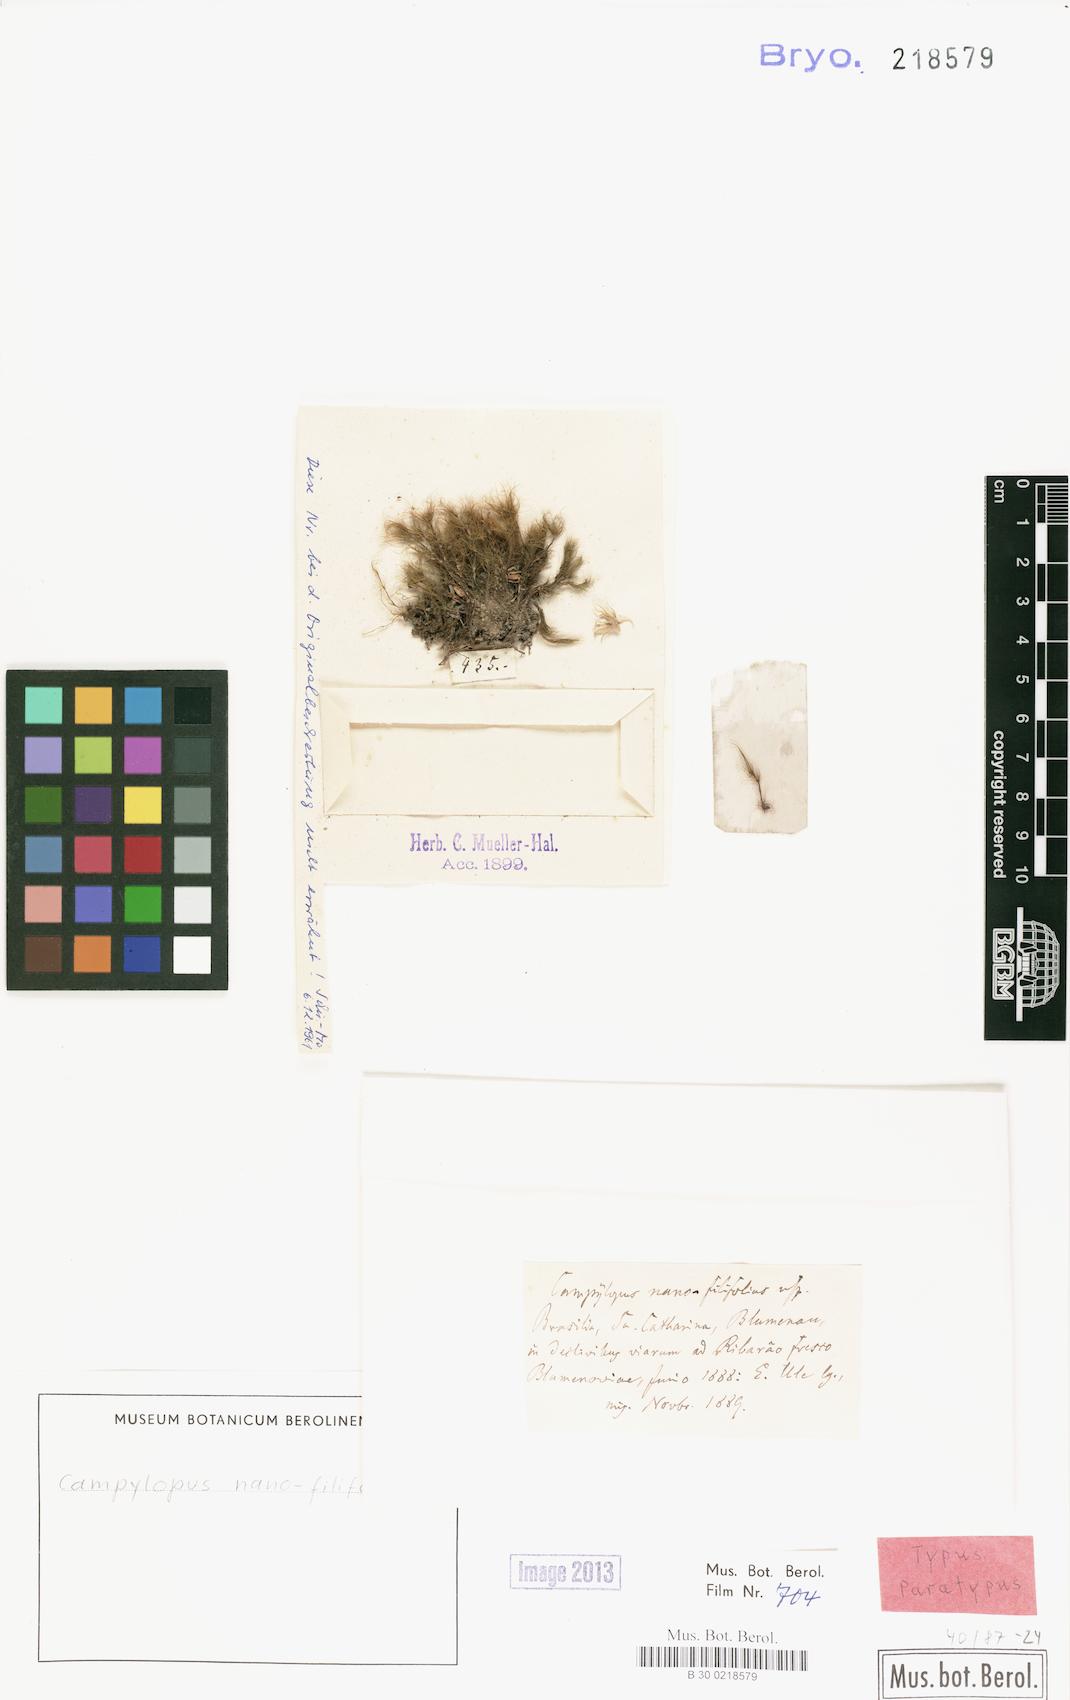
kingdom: Plantae
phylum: Bryophyta
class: Bryopsida
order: Dicranales
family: Leucobryaceae
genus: Campylopus
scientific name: Campylopus filifolius
